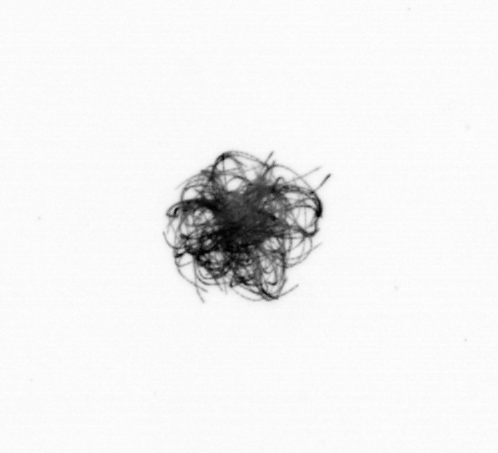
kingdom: Bacteria
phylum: Cyanobacteria
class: Cyanobacteriia
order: Cyanobacteriales
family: Microcoleaceae
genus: Trichodesmium
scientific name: Trichodesmium
